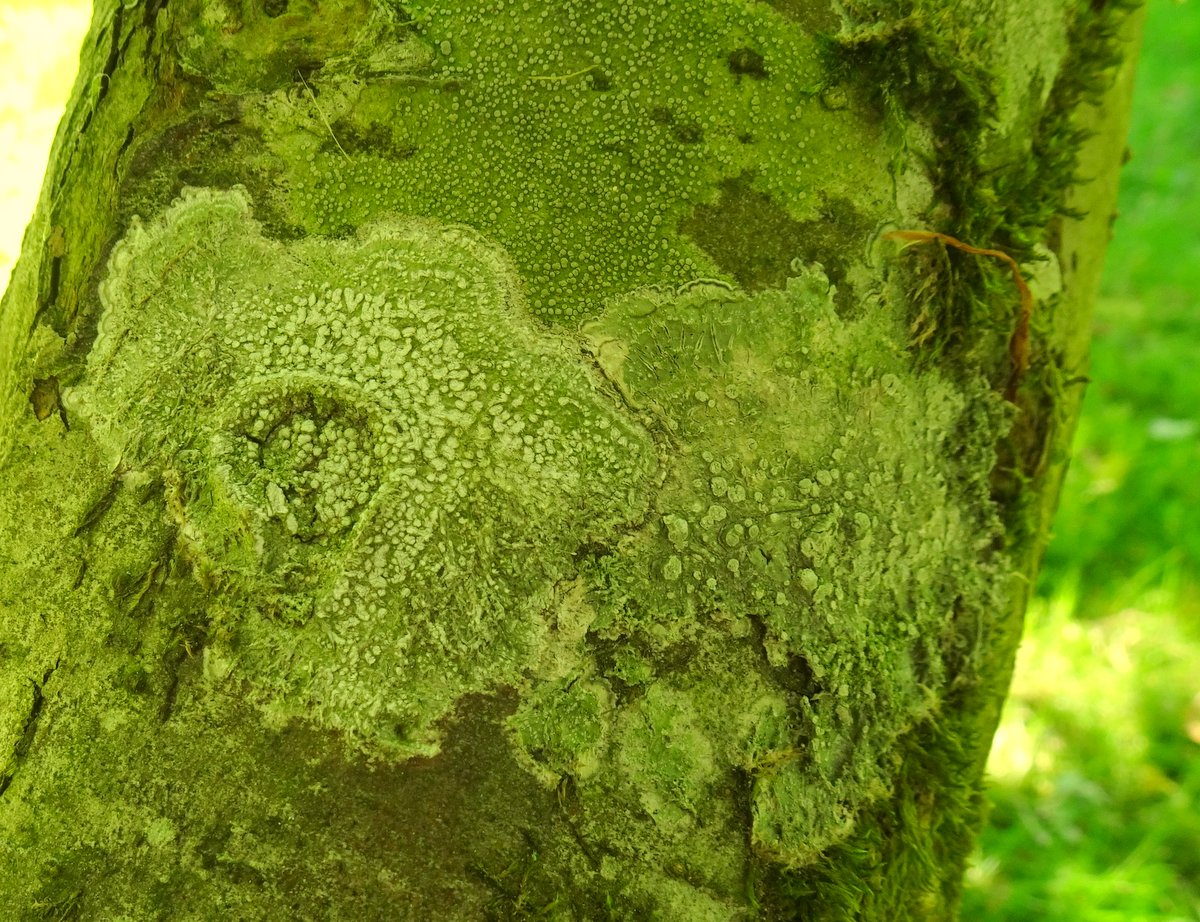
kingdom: Fungi
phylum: Ascomycota
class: Lecanoromycetes
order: Pertusariales
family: Pertusariaceae
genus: Lepra
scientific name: Lepra amara
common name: bitter prikvortelav
